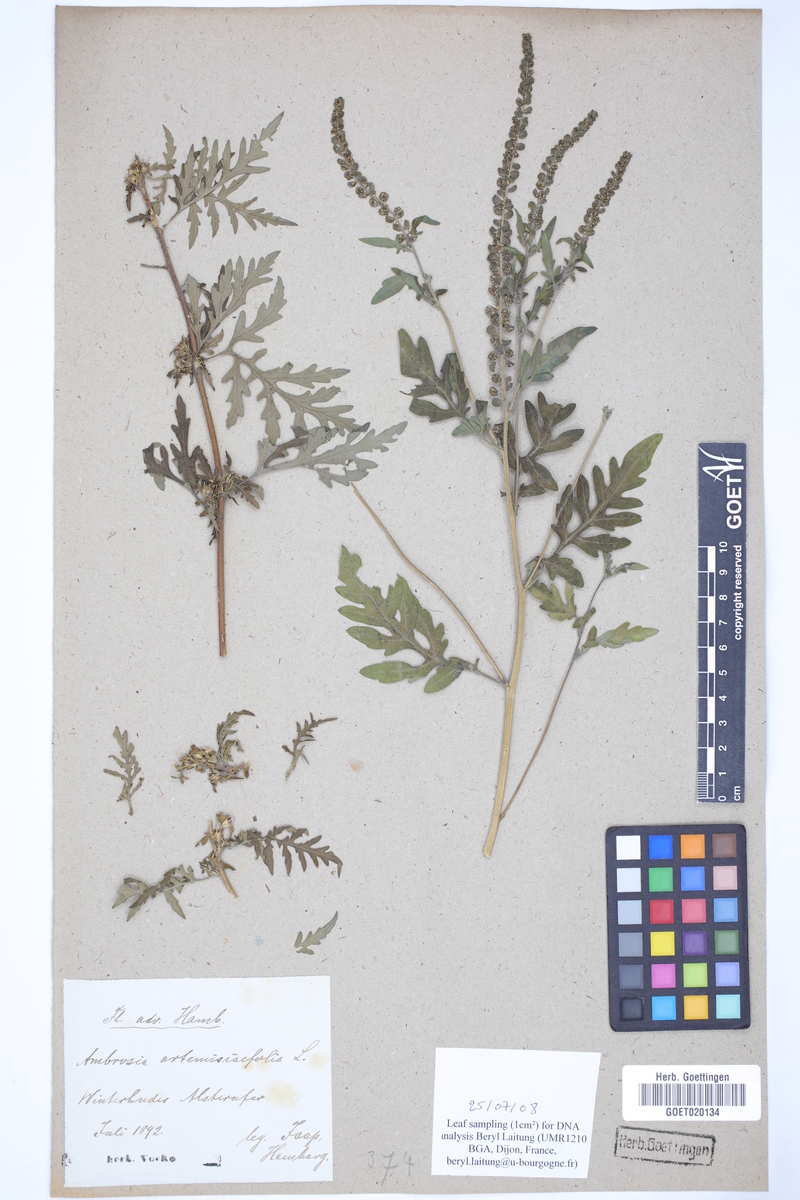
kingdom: Plantae
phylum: Tracheophyta
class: Magnoliopsida
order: Asterales
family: Asteraceae
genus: Ambrosia
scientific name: Ambrosia artemisiifolia
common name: Annual ragweed
